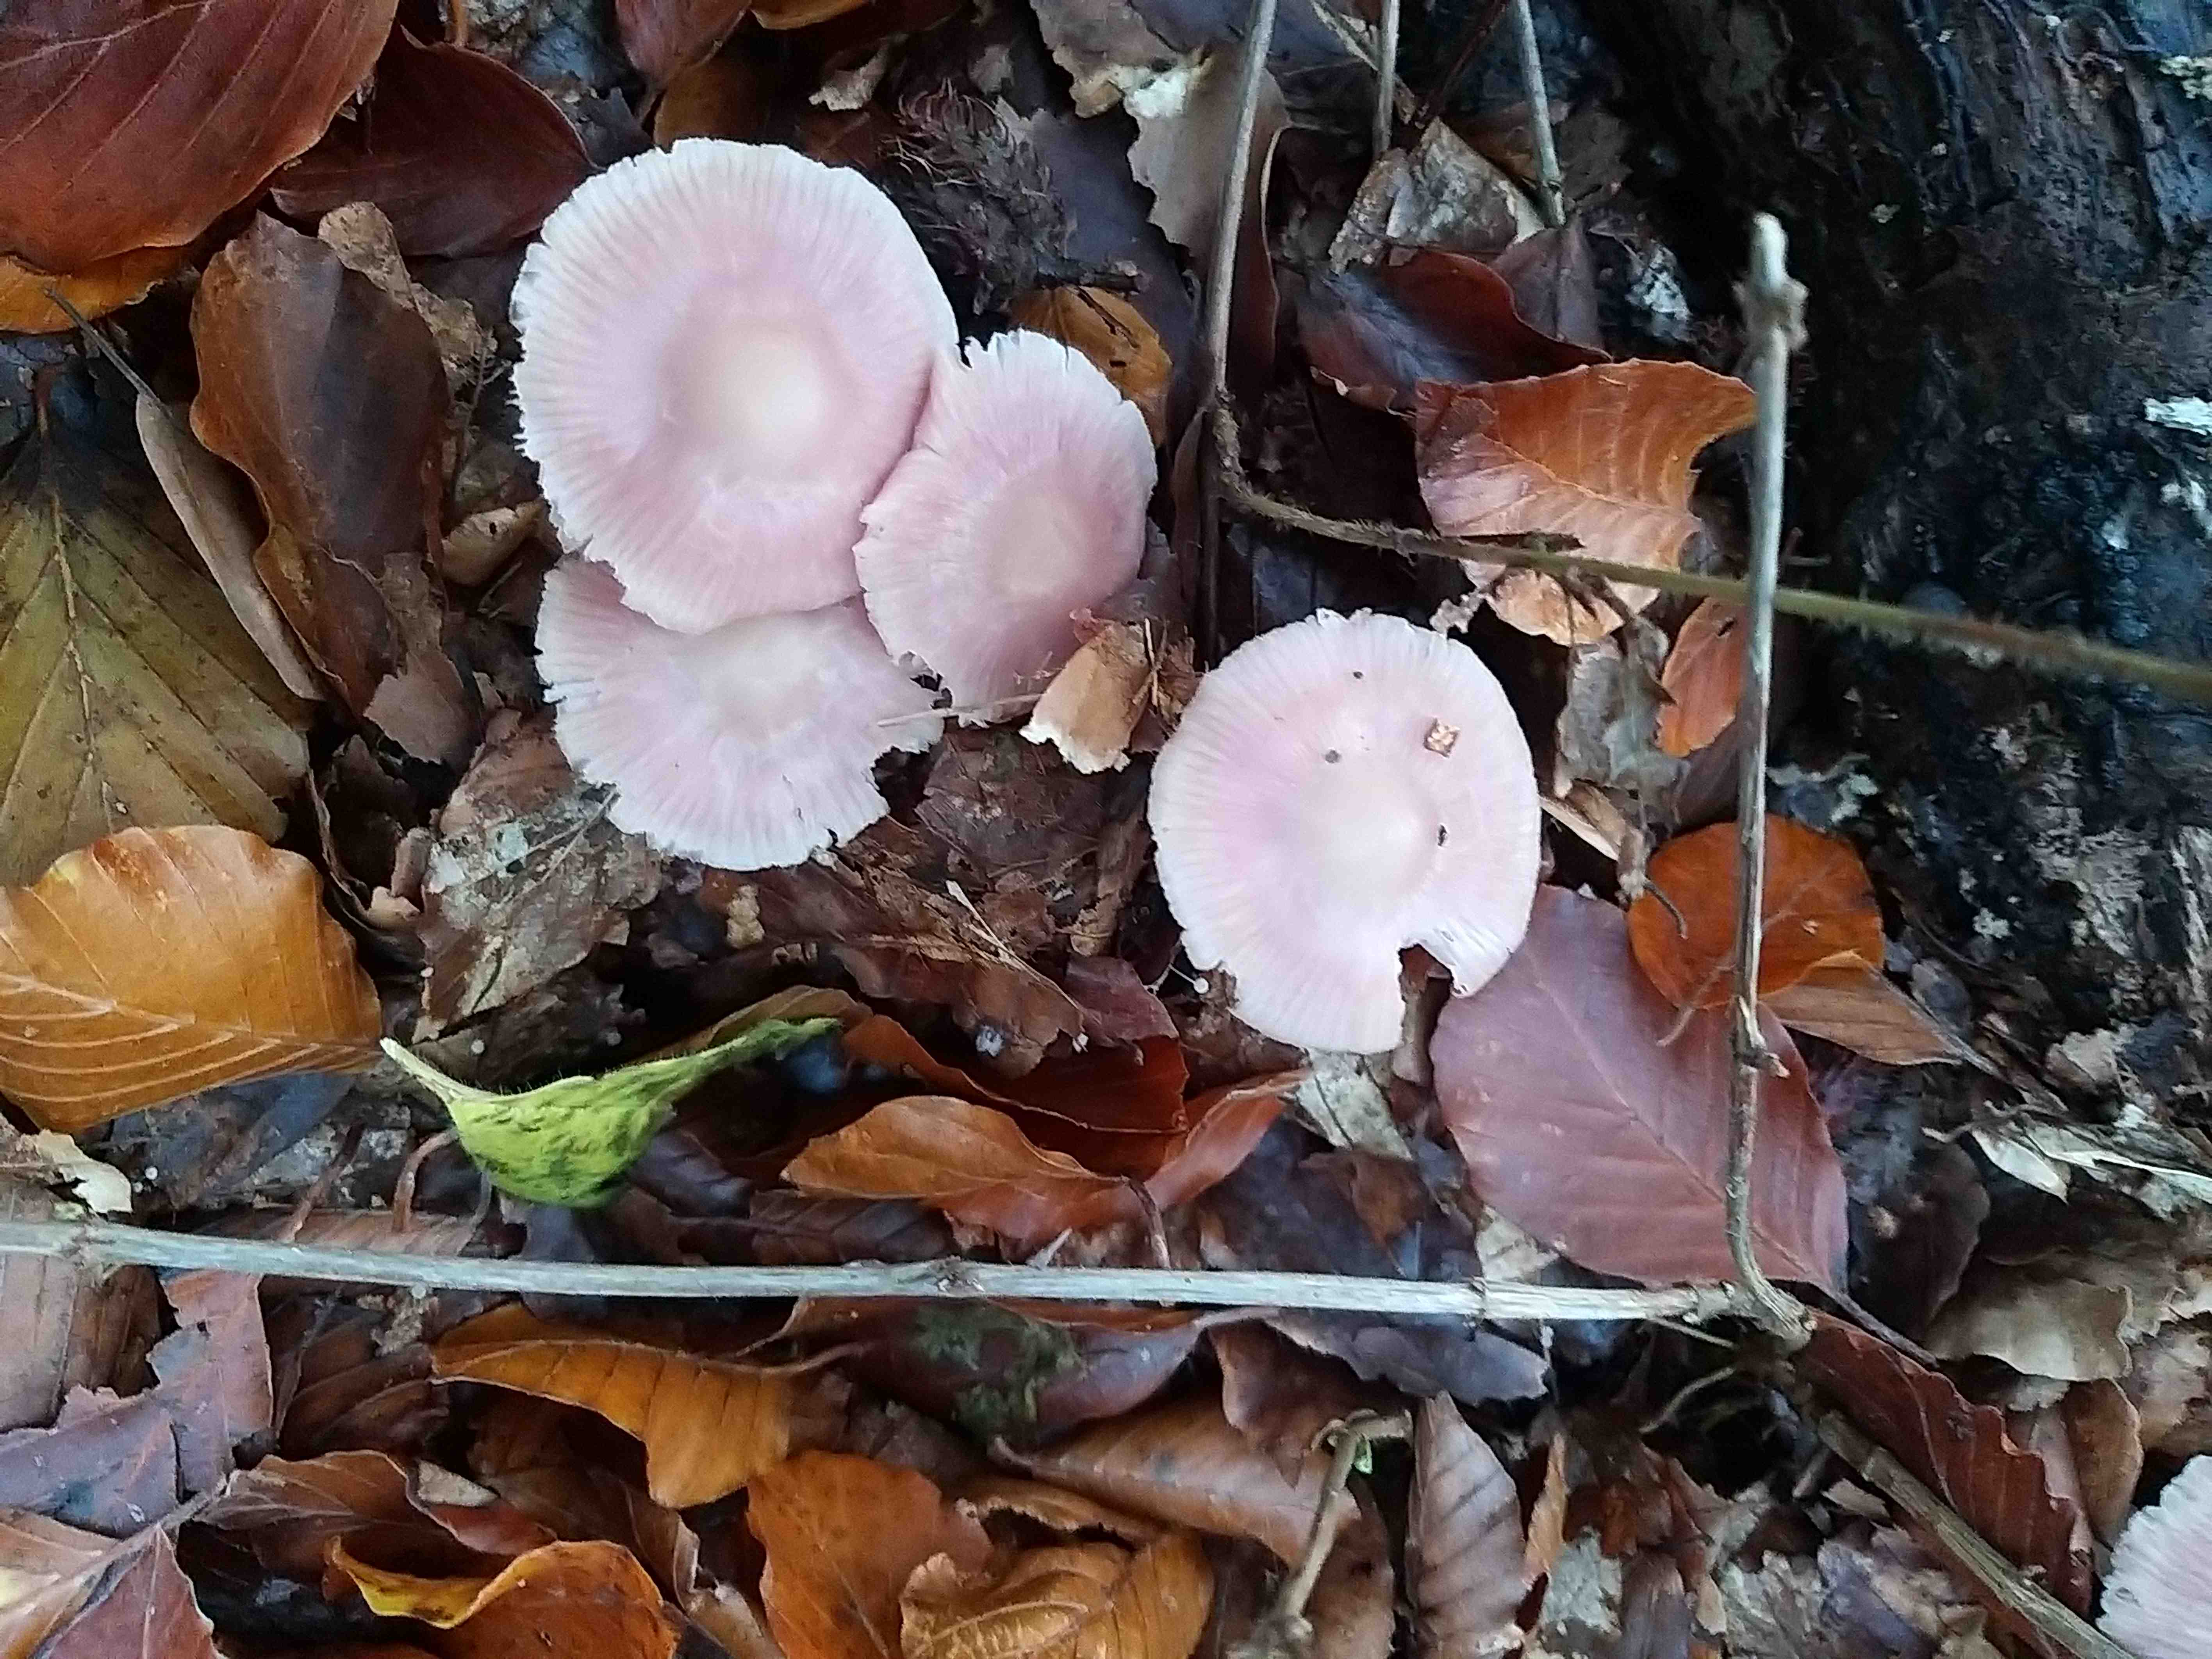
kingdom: Fungi
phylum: Basidiomycota
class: Agaricomycetes
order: Agaricales
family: Mycenaceae
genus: Mycena
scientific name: Mycena rosea
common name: rosa huesvamp
